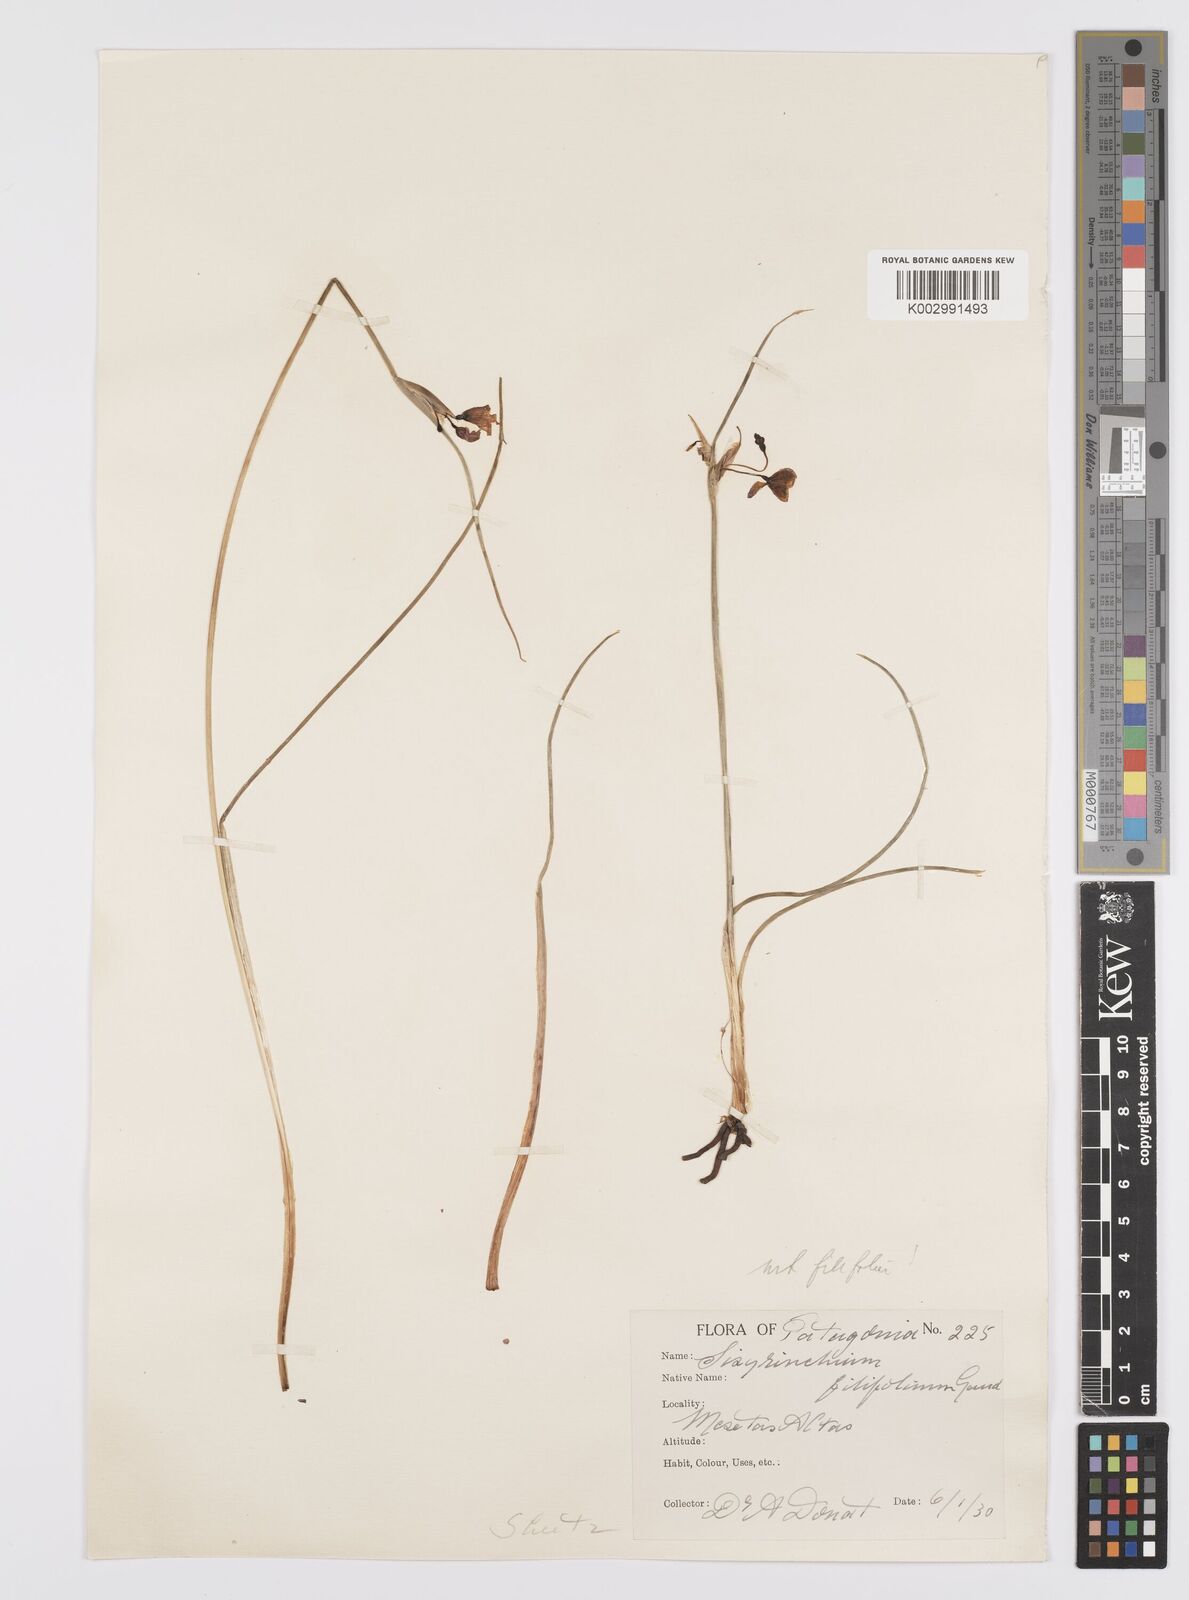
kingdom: Plantae
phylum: Tracheophyta
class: Liliopsida
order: Asparagales
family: Iridaceae
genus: Olsynium
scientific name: Olsynium
